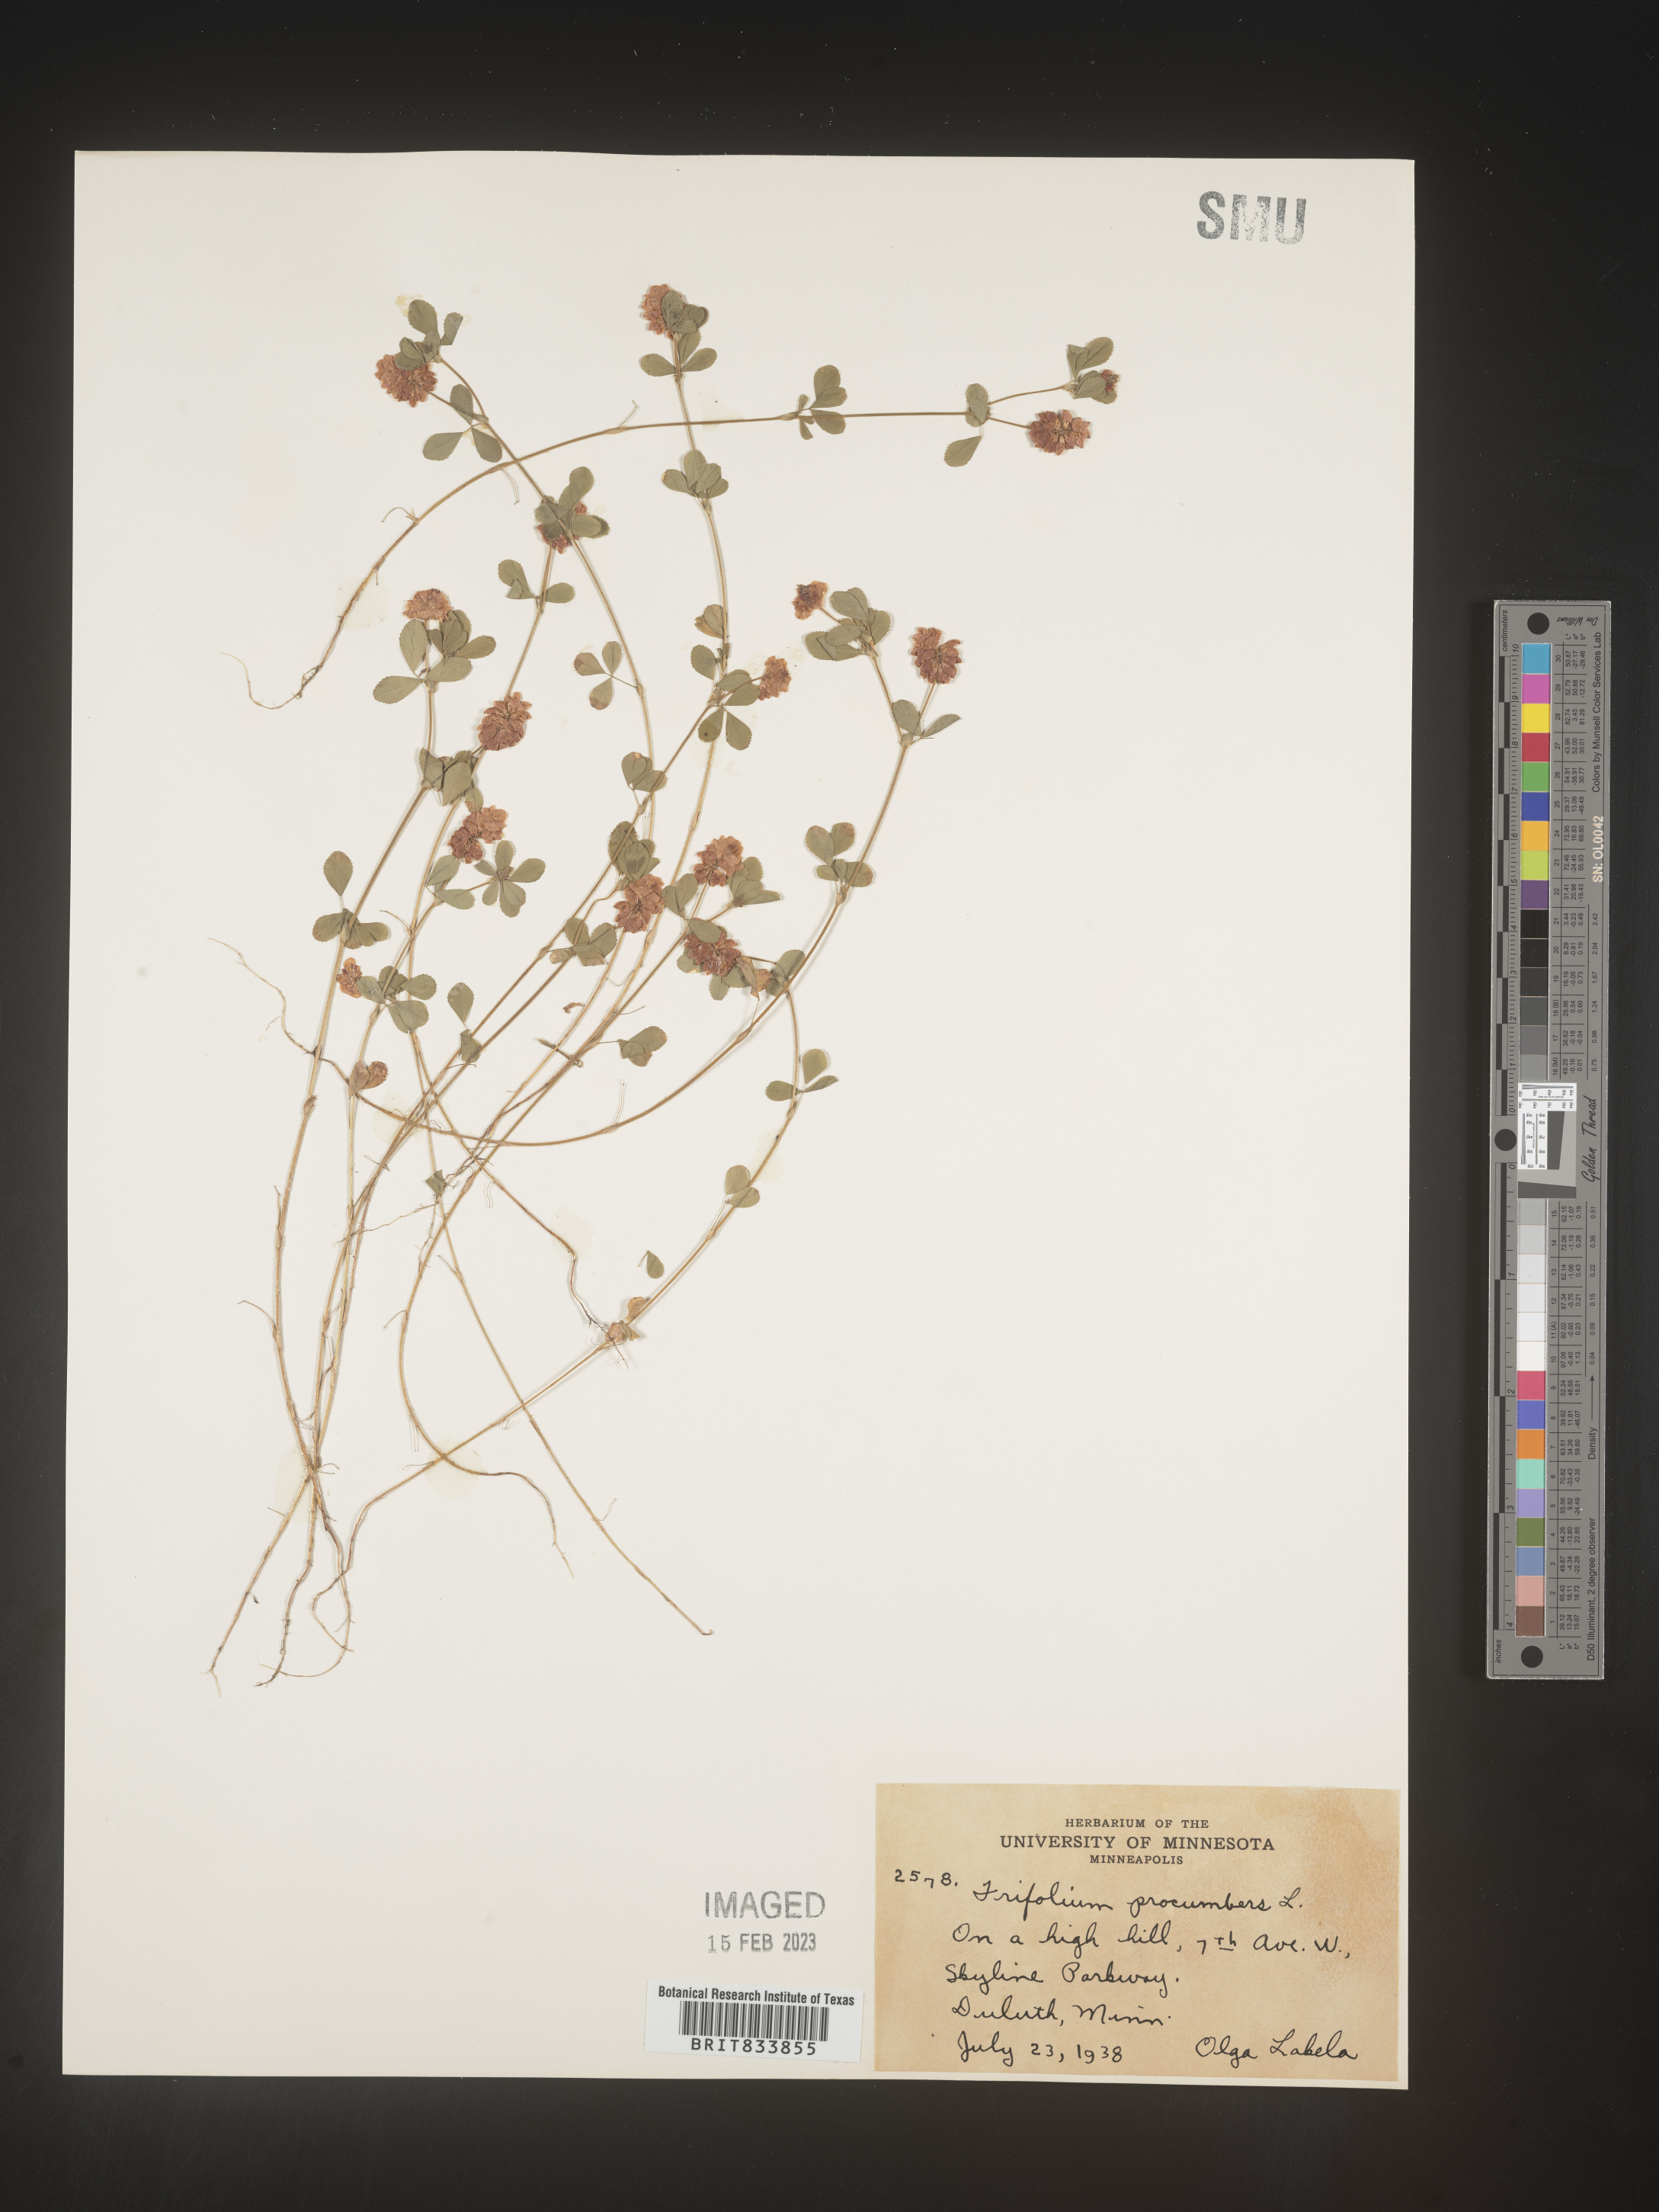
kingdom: Plantae
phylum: Tracheophyta
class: Magnoliopsida
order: Fabales
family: Fabaceae
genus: Trifolium
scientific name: Trifolium campestre
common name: Field clover
